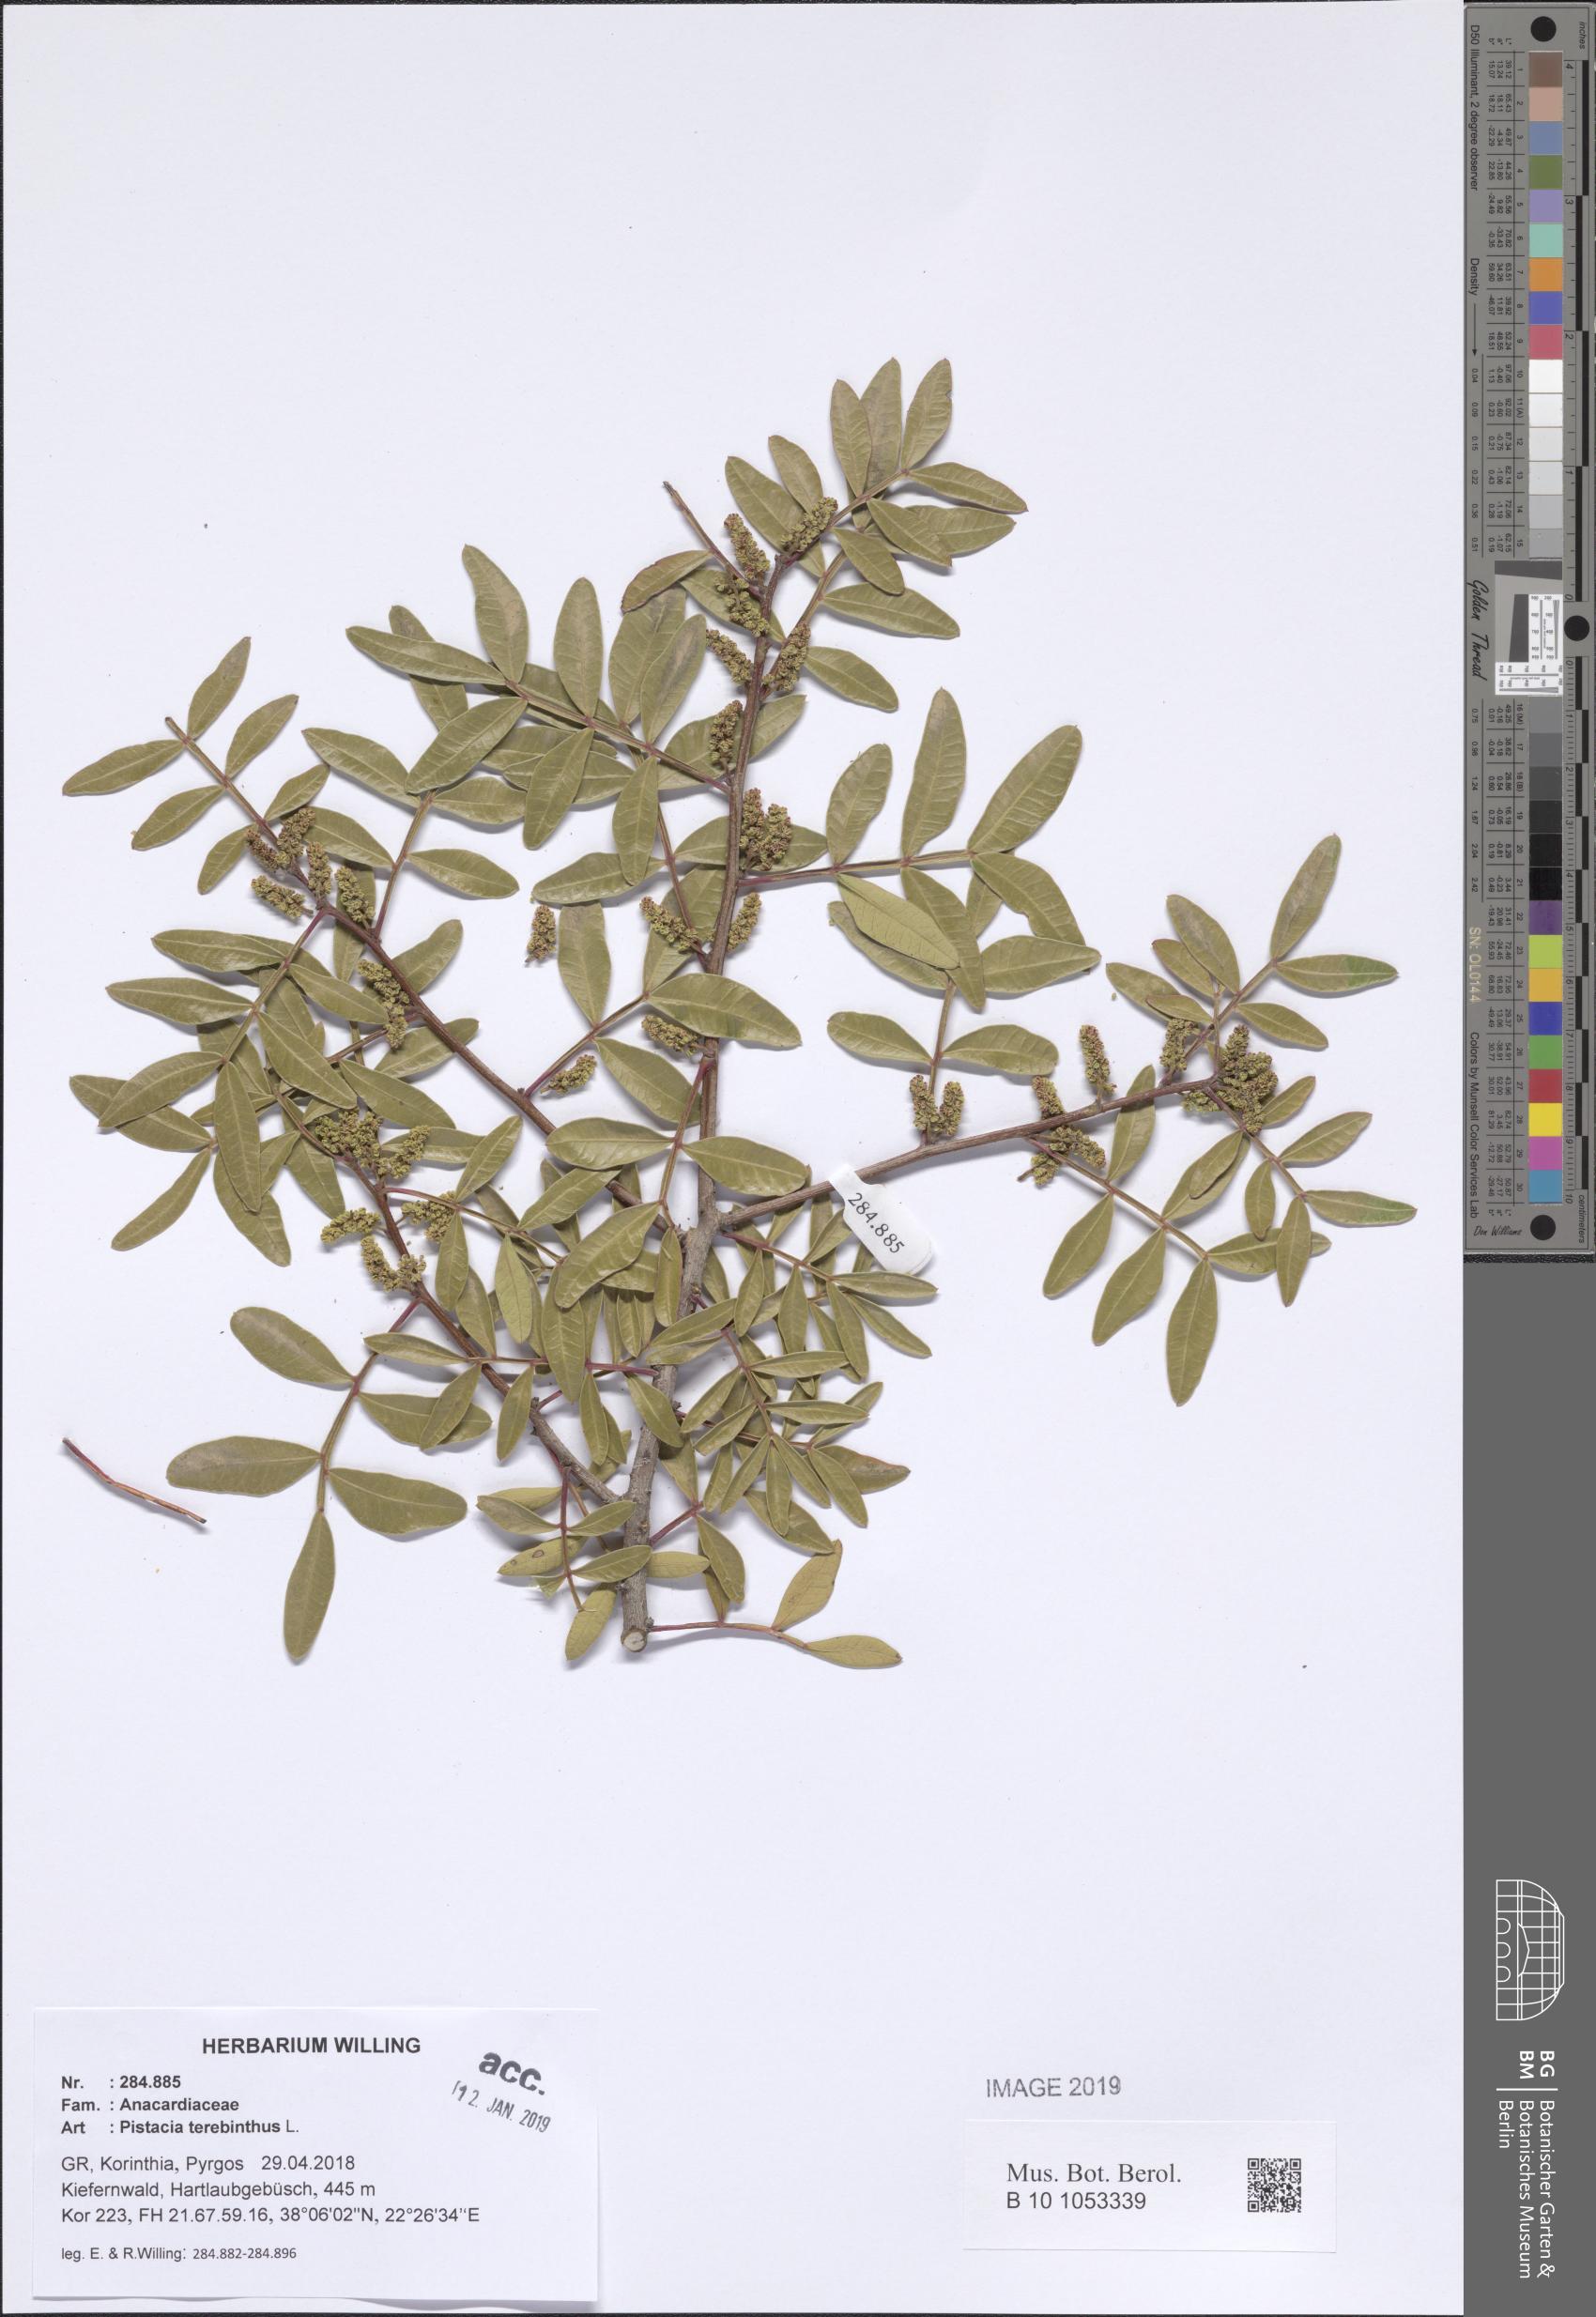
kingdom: Plantae
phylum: Tracheophyta
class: Magnoliopsida
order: Sapindales
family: Anacardiaceae
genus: Pistacia
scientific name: Pistacia terebinthus
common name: Terebinth
